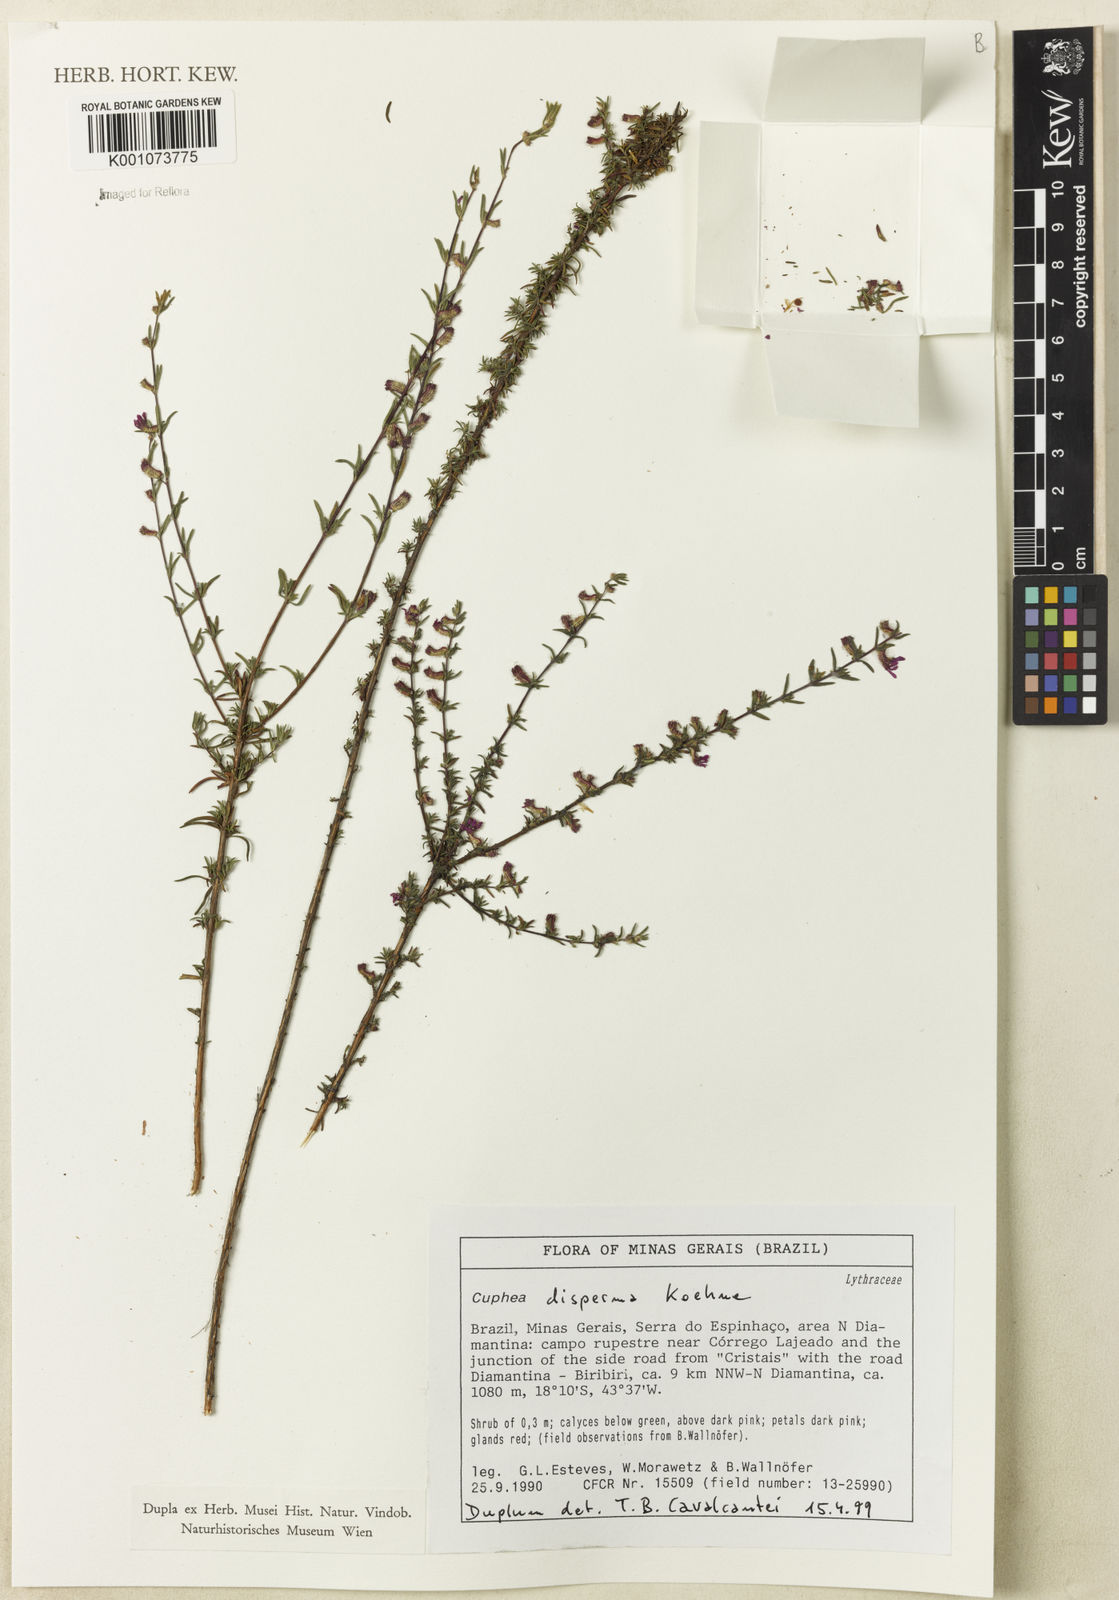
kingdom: Plantae
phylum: Tracheophyta
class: Magnoliopsida
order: Myrtales
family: Lythraceae
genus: Cuphea
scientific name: Cuphea disperma
